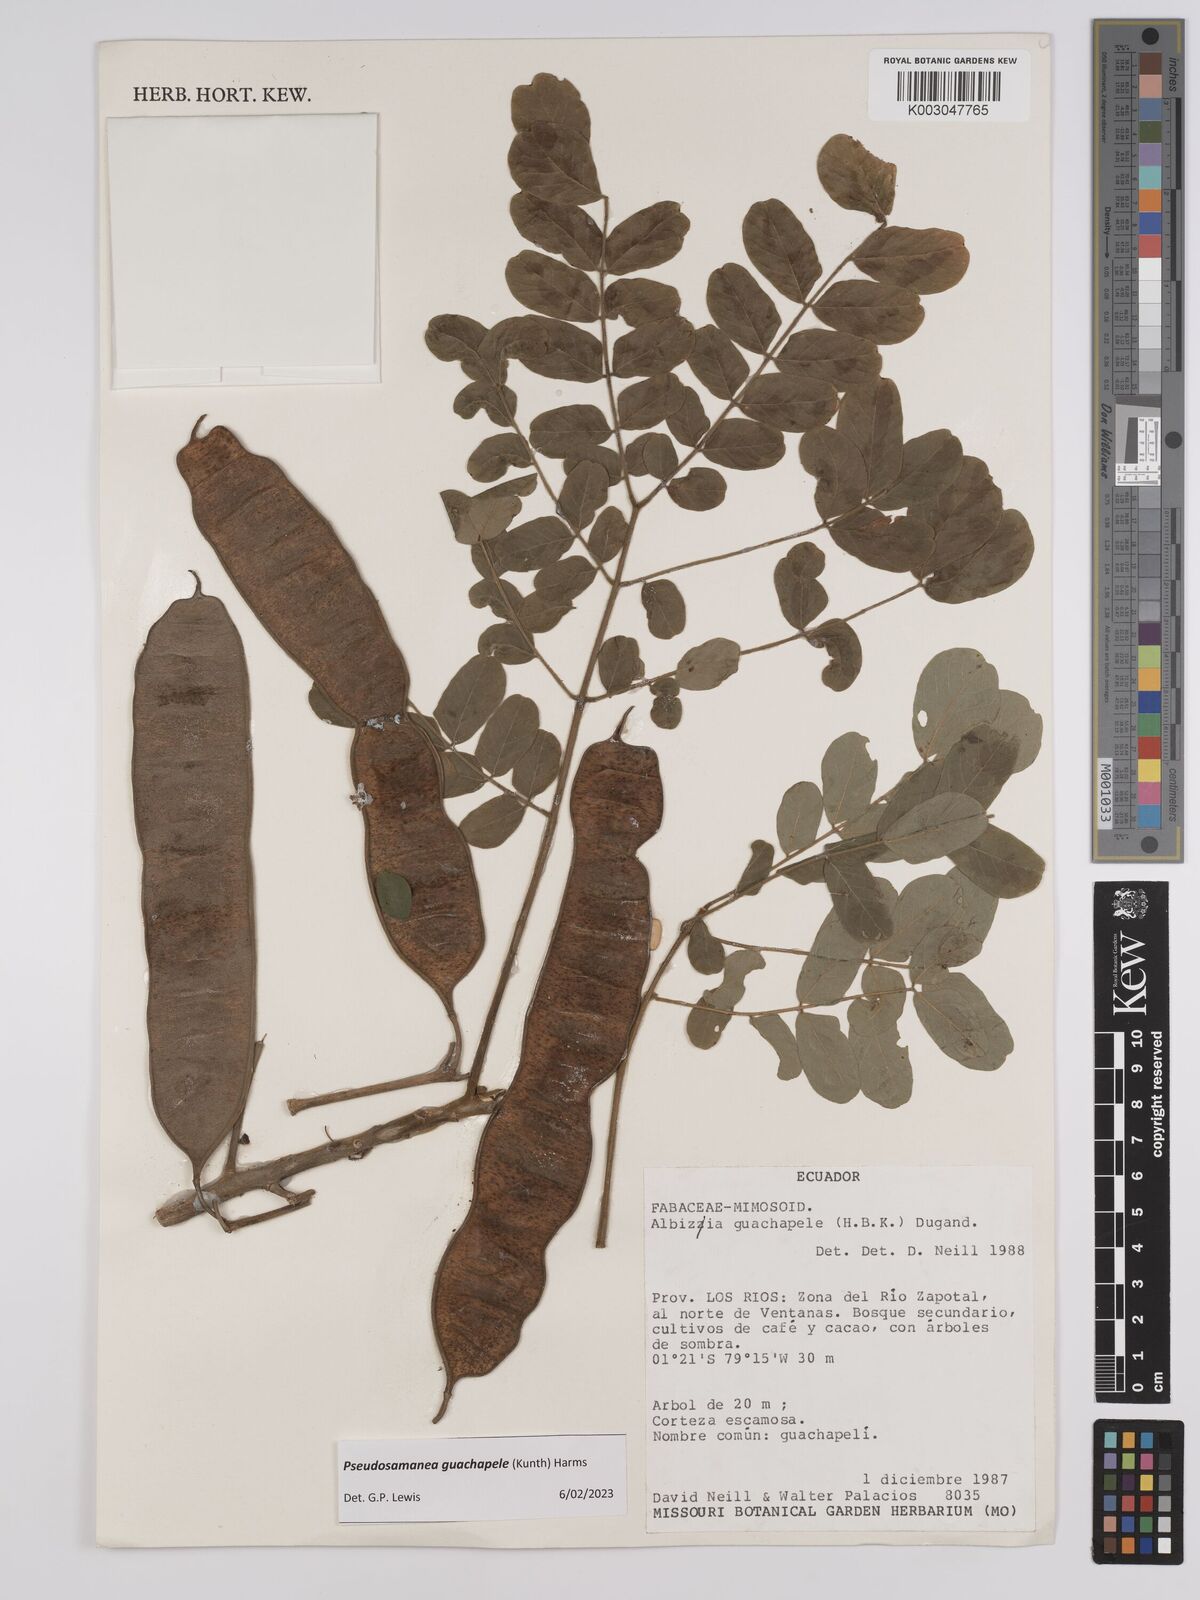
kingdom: Plantae
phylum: Tracheophyta
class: Magnoliopsida
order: Fabales
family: Fabaceae
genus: Pseudosamanea
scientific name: Pseudosamanea guachapele
